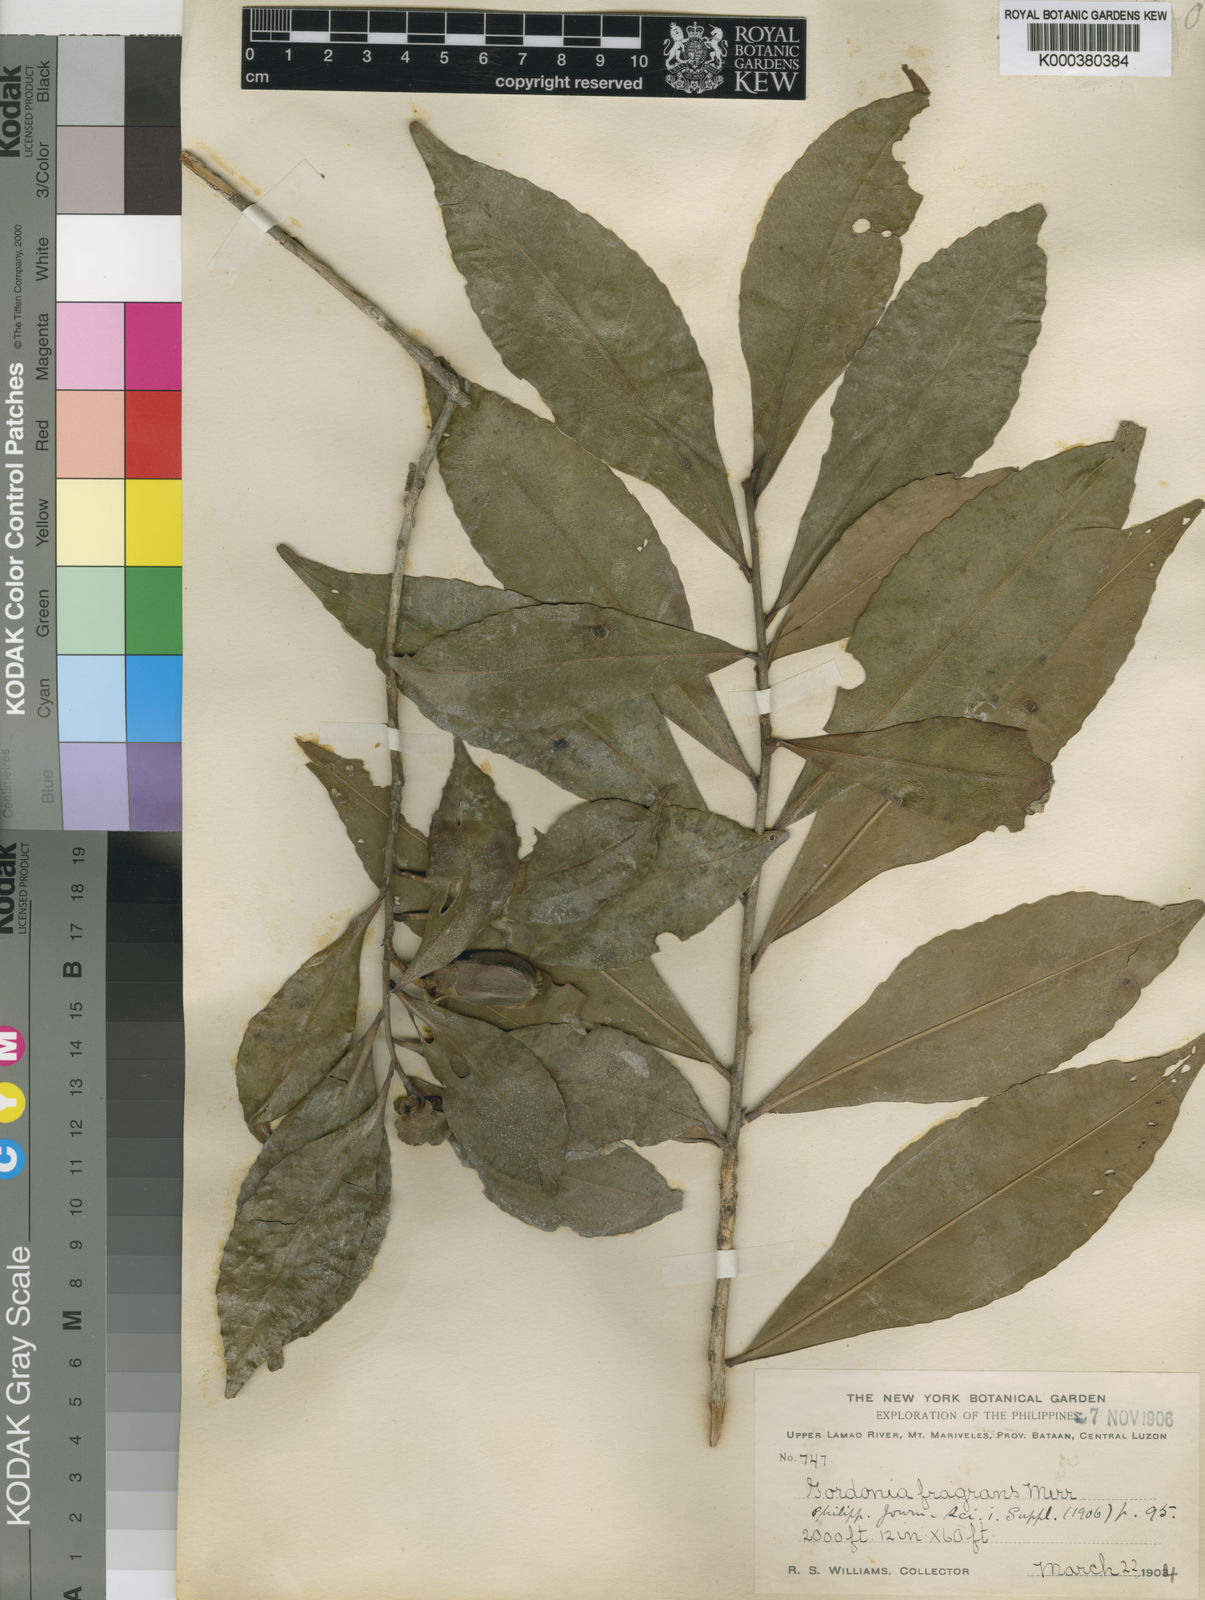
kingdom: Plantae
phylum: Tracheophyta
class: Magnoliopsida
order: Ericales
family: Theaceae
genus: Polyspora
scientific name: Polyspora luzonica
